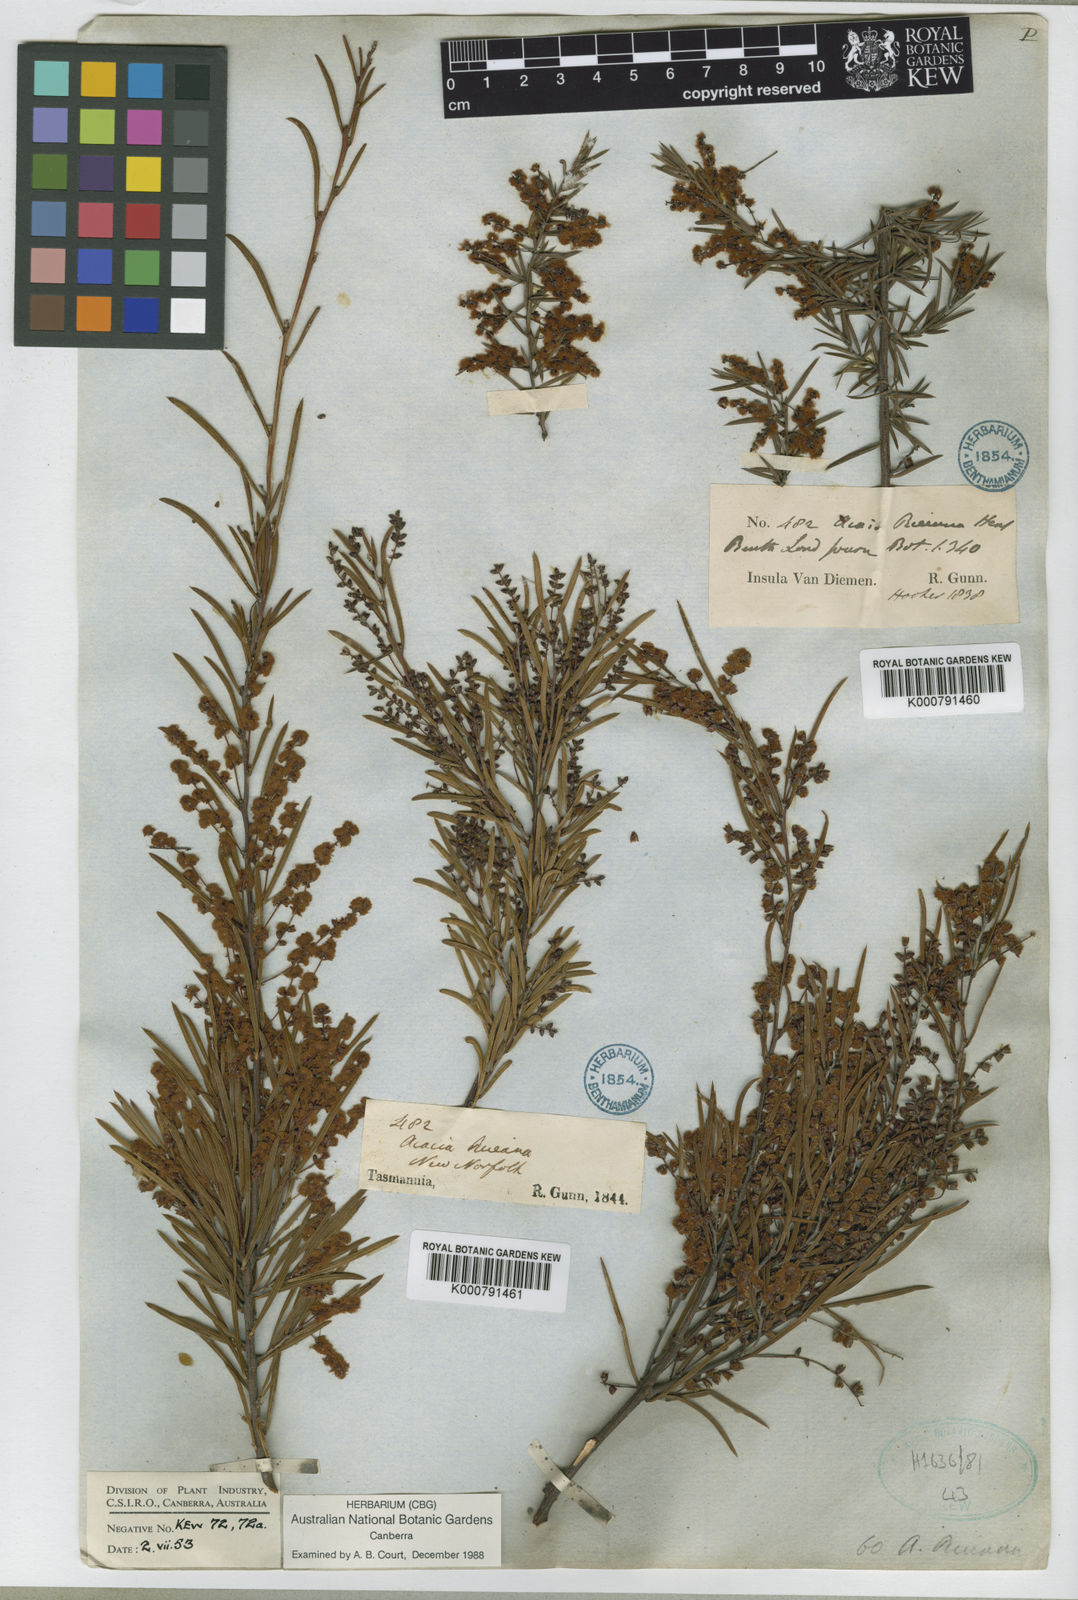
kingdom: Plantae
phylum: Tracheophyta
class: Magnoliopsida
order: Fabales
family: Fabaceae
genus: Acacia
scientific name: Acacia riceana
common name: Rice's wattle
